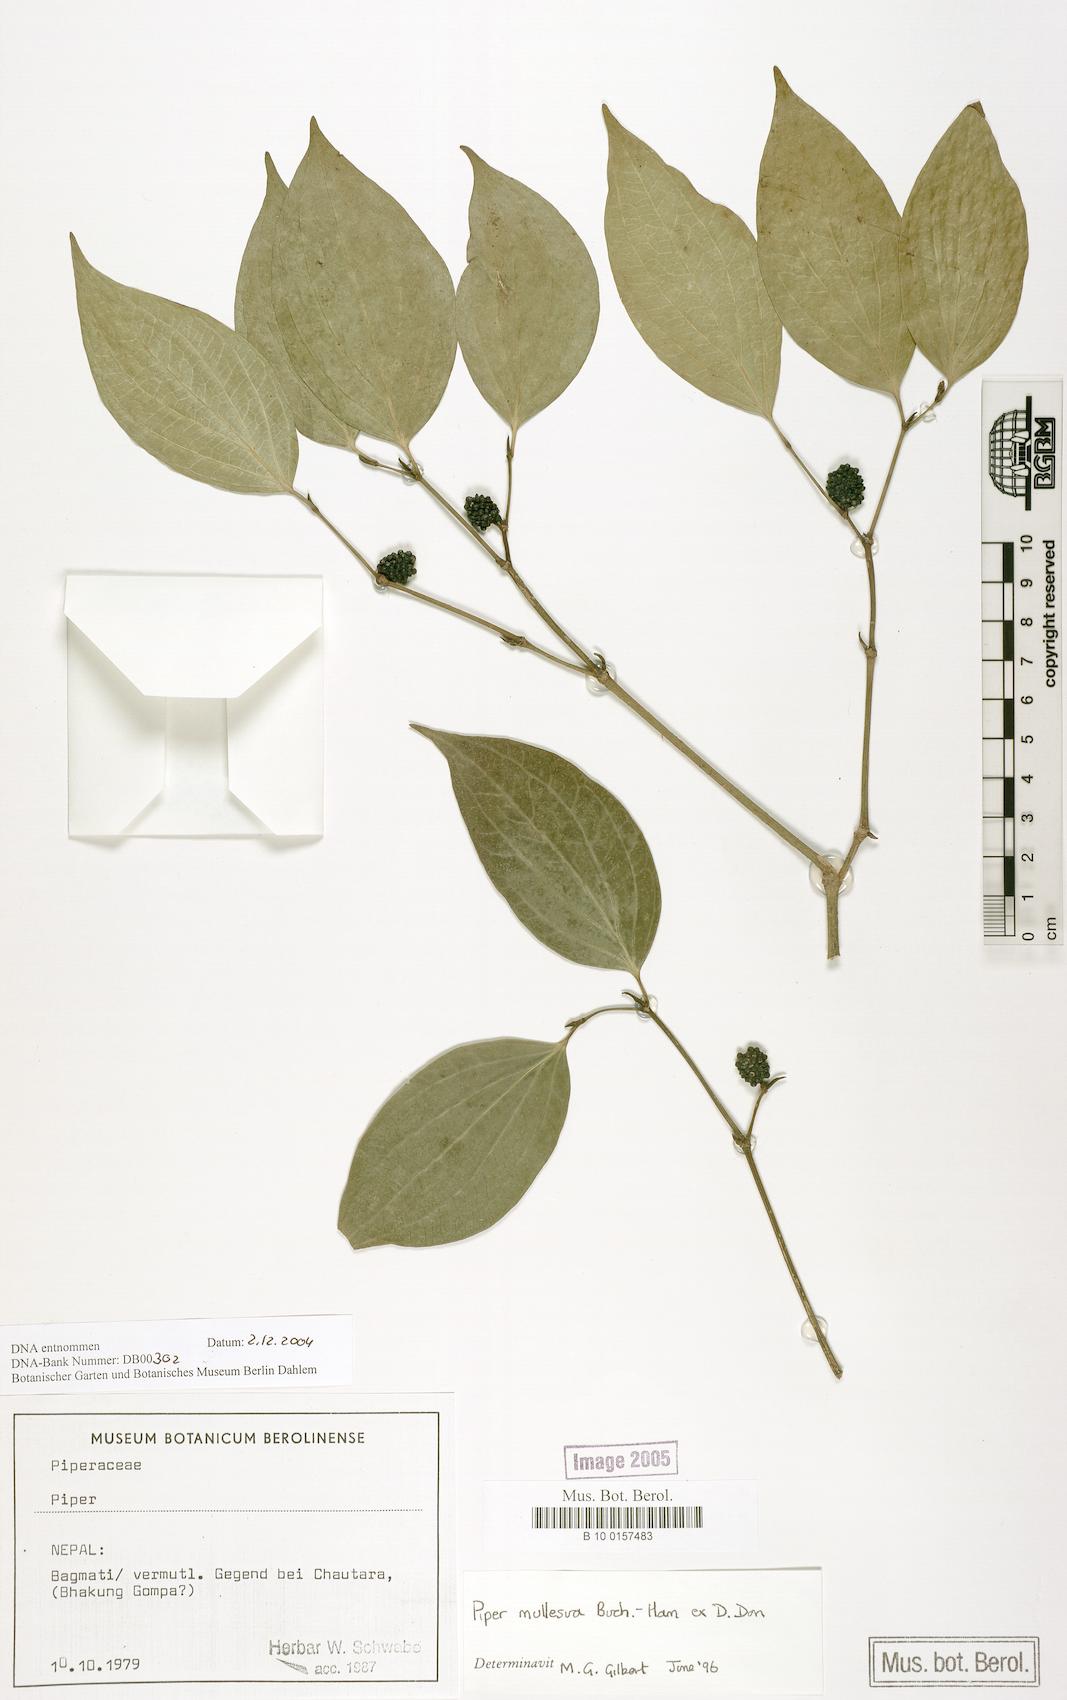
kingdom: Plantae
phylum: Tracheophyta
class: Magnoliopsida
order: Piperales
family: Piperaceae
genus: Piper
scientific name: Piper mullesua
